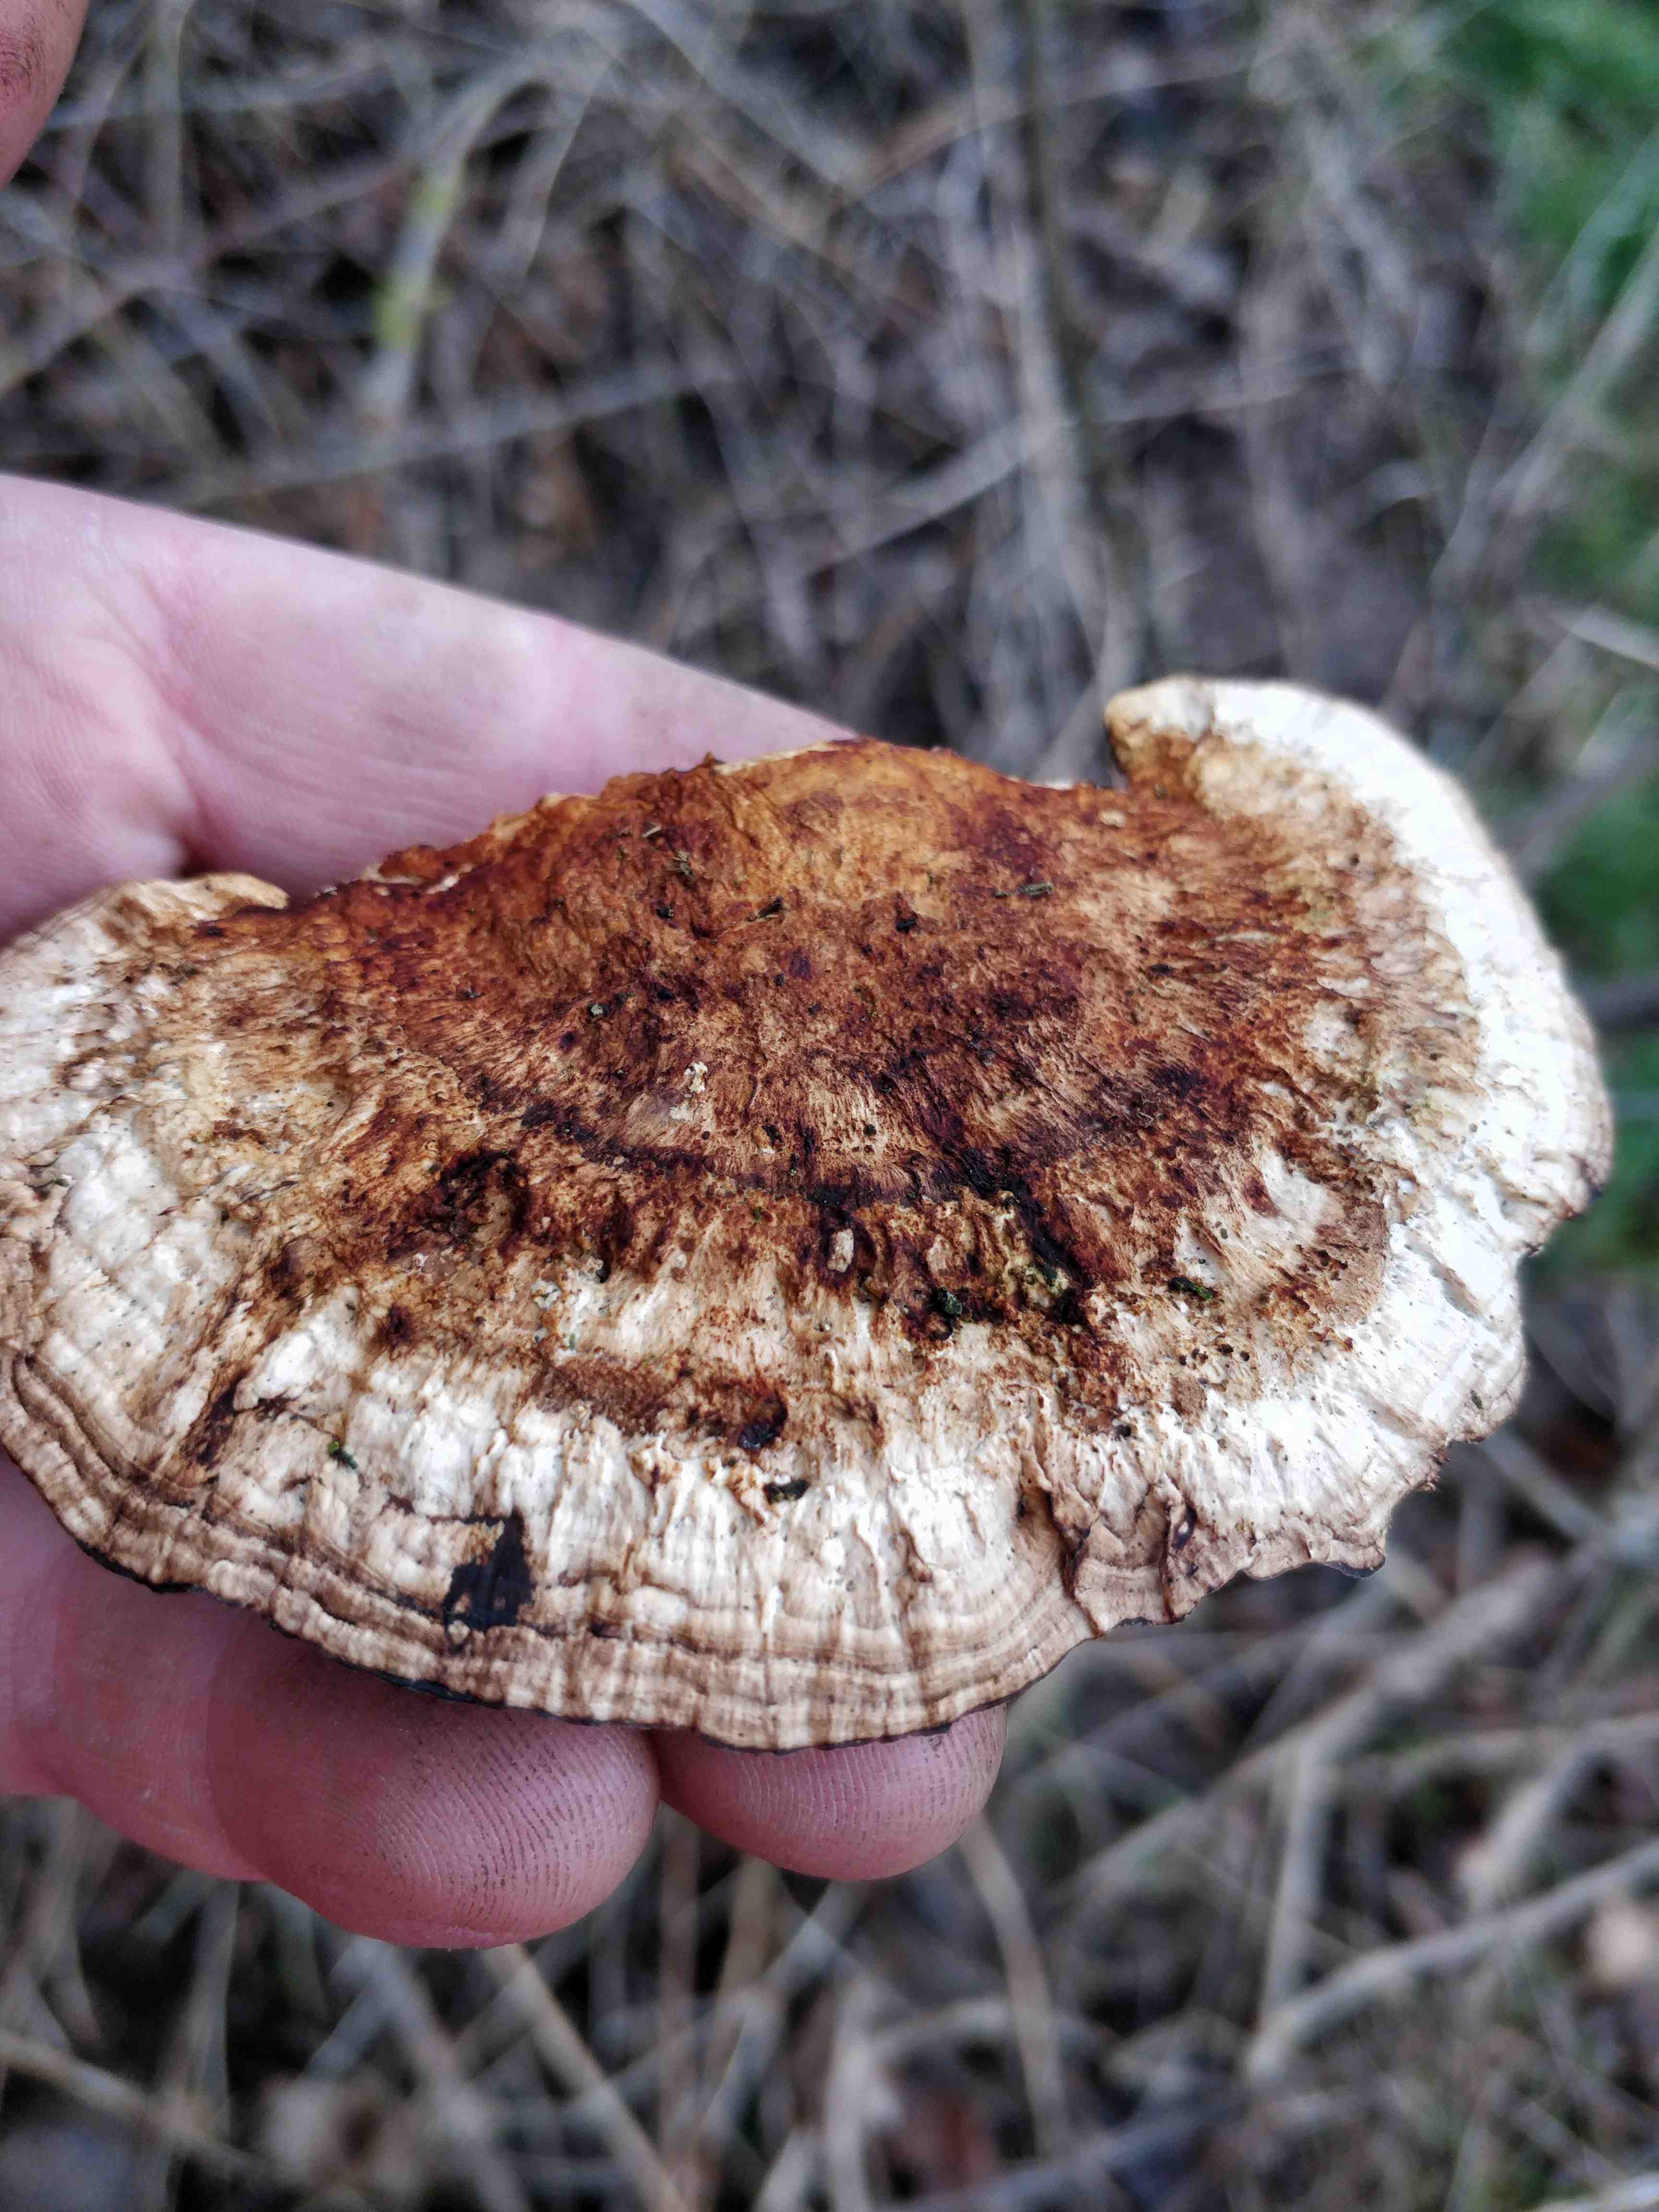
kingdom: Fungi
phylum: Basidiomycota
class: Agaricomycetes
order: Polyporales
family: Polyporaceae
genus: Daedaleopsis
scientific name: Daedaleopsis confragosa
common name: rødmende læderporesvamp
